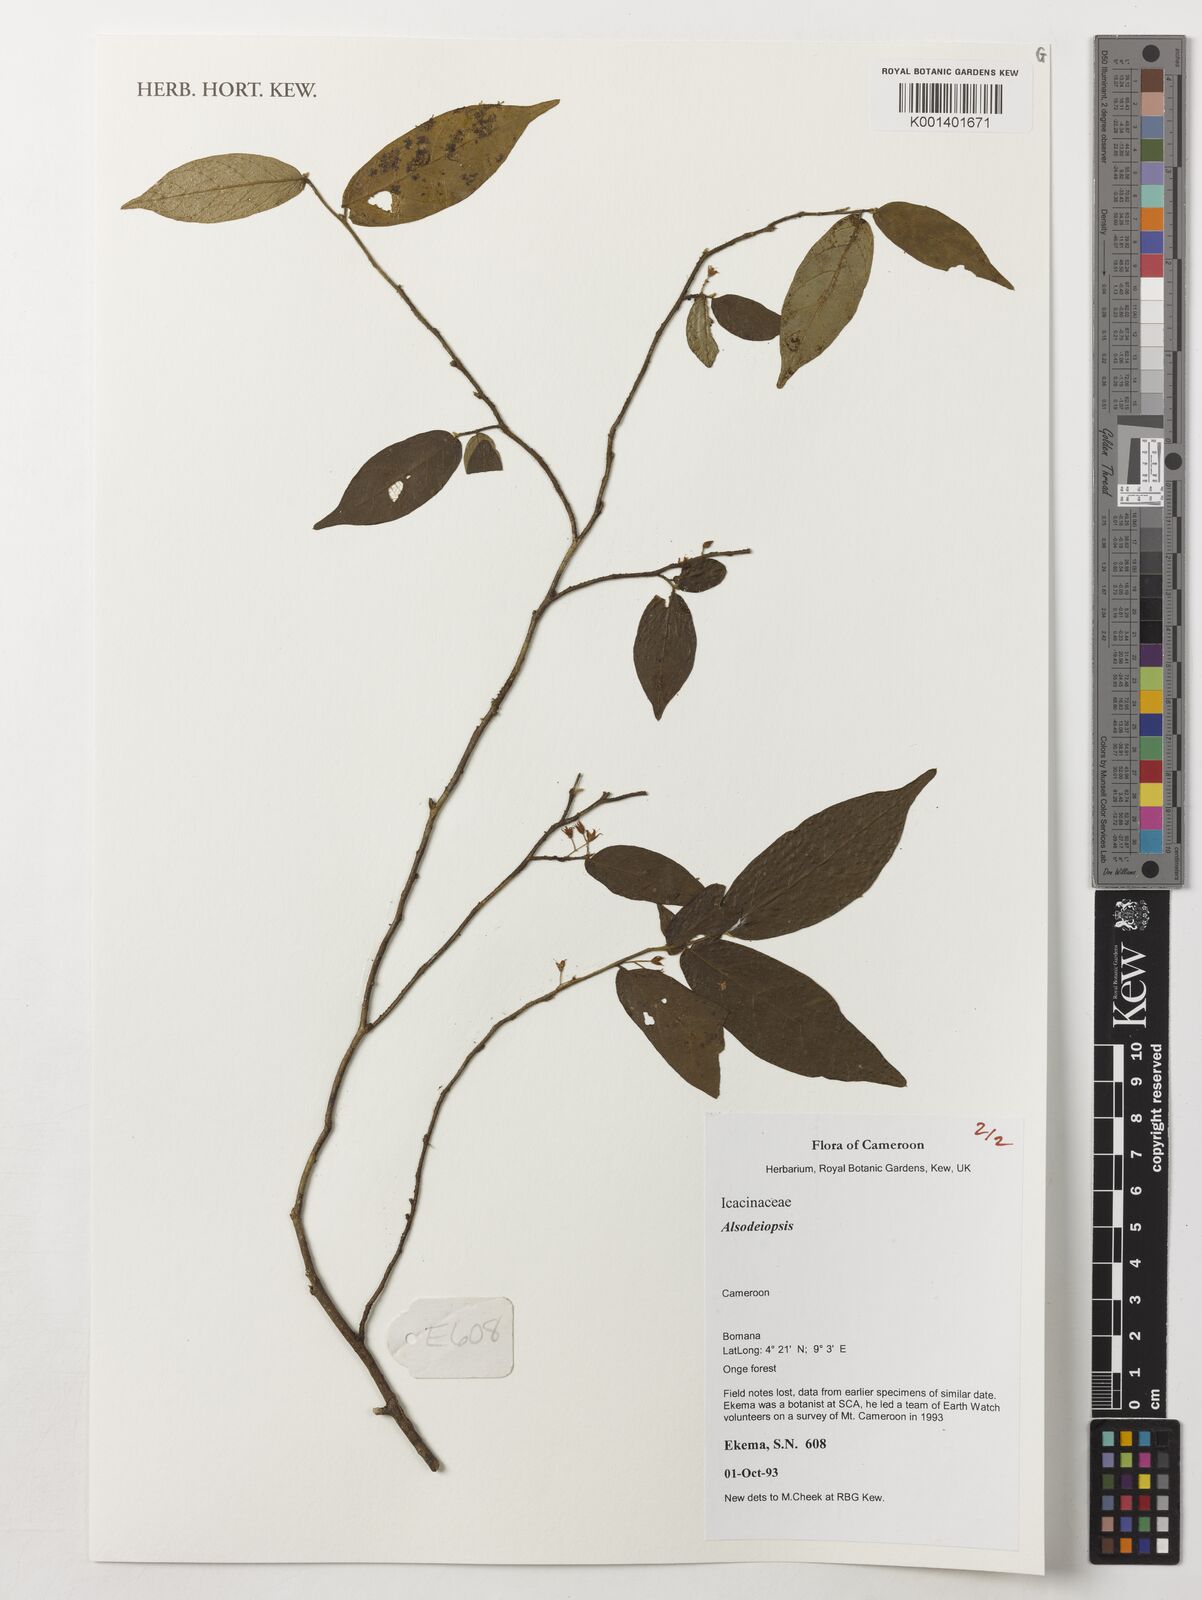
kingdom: Plantae
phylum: Tracheophyta
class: Magnoliopsida
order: Icacinales
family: Icacinaceae
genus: Alsodeiopsis
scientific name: Alsodeiopsis
